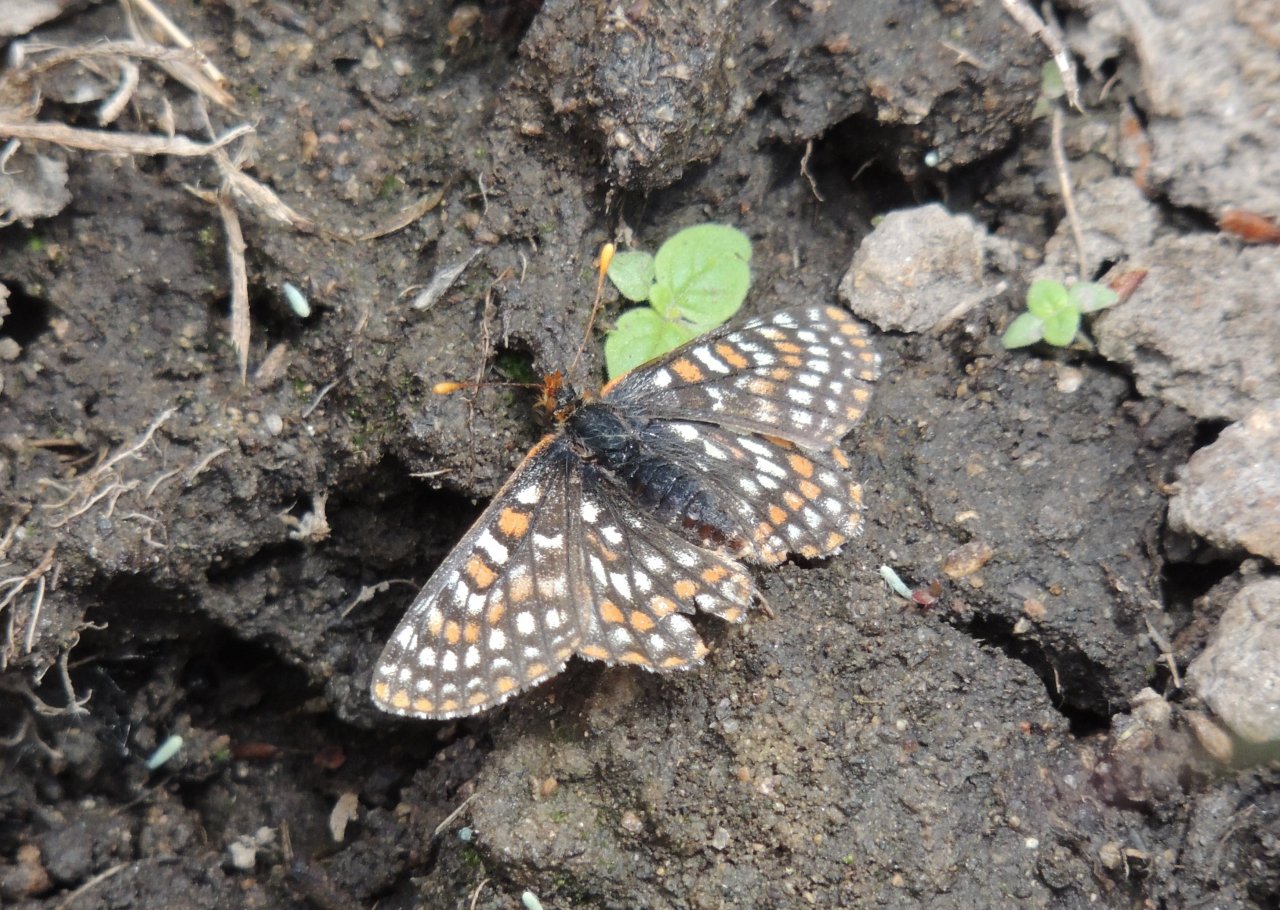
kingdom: Animalia
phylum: Arthropoda
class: Insecta
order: Lepidoptera
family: Nymphalidae
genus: Occidryas
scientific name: Occidryas anicia
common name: Anicia Checkerspot
